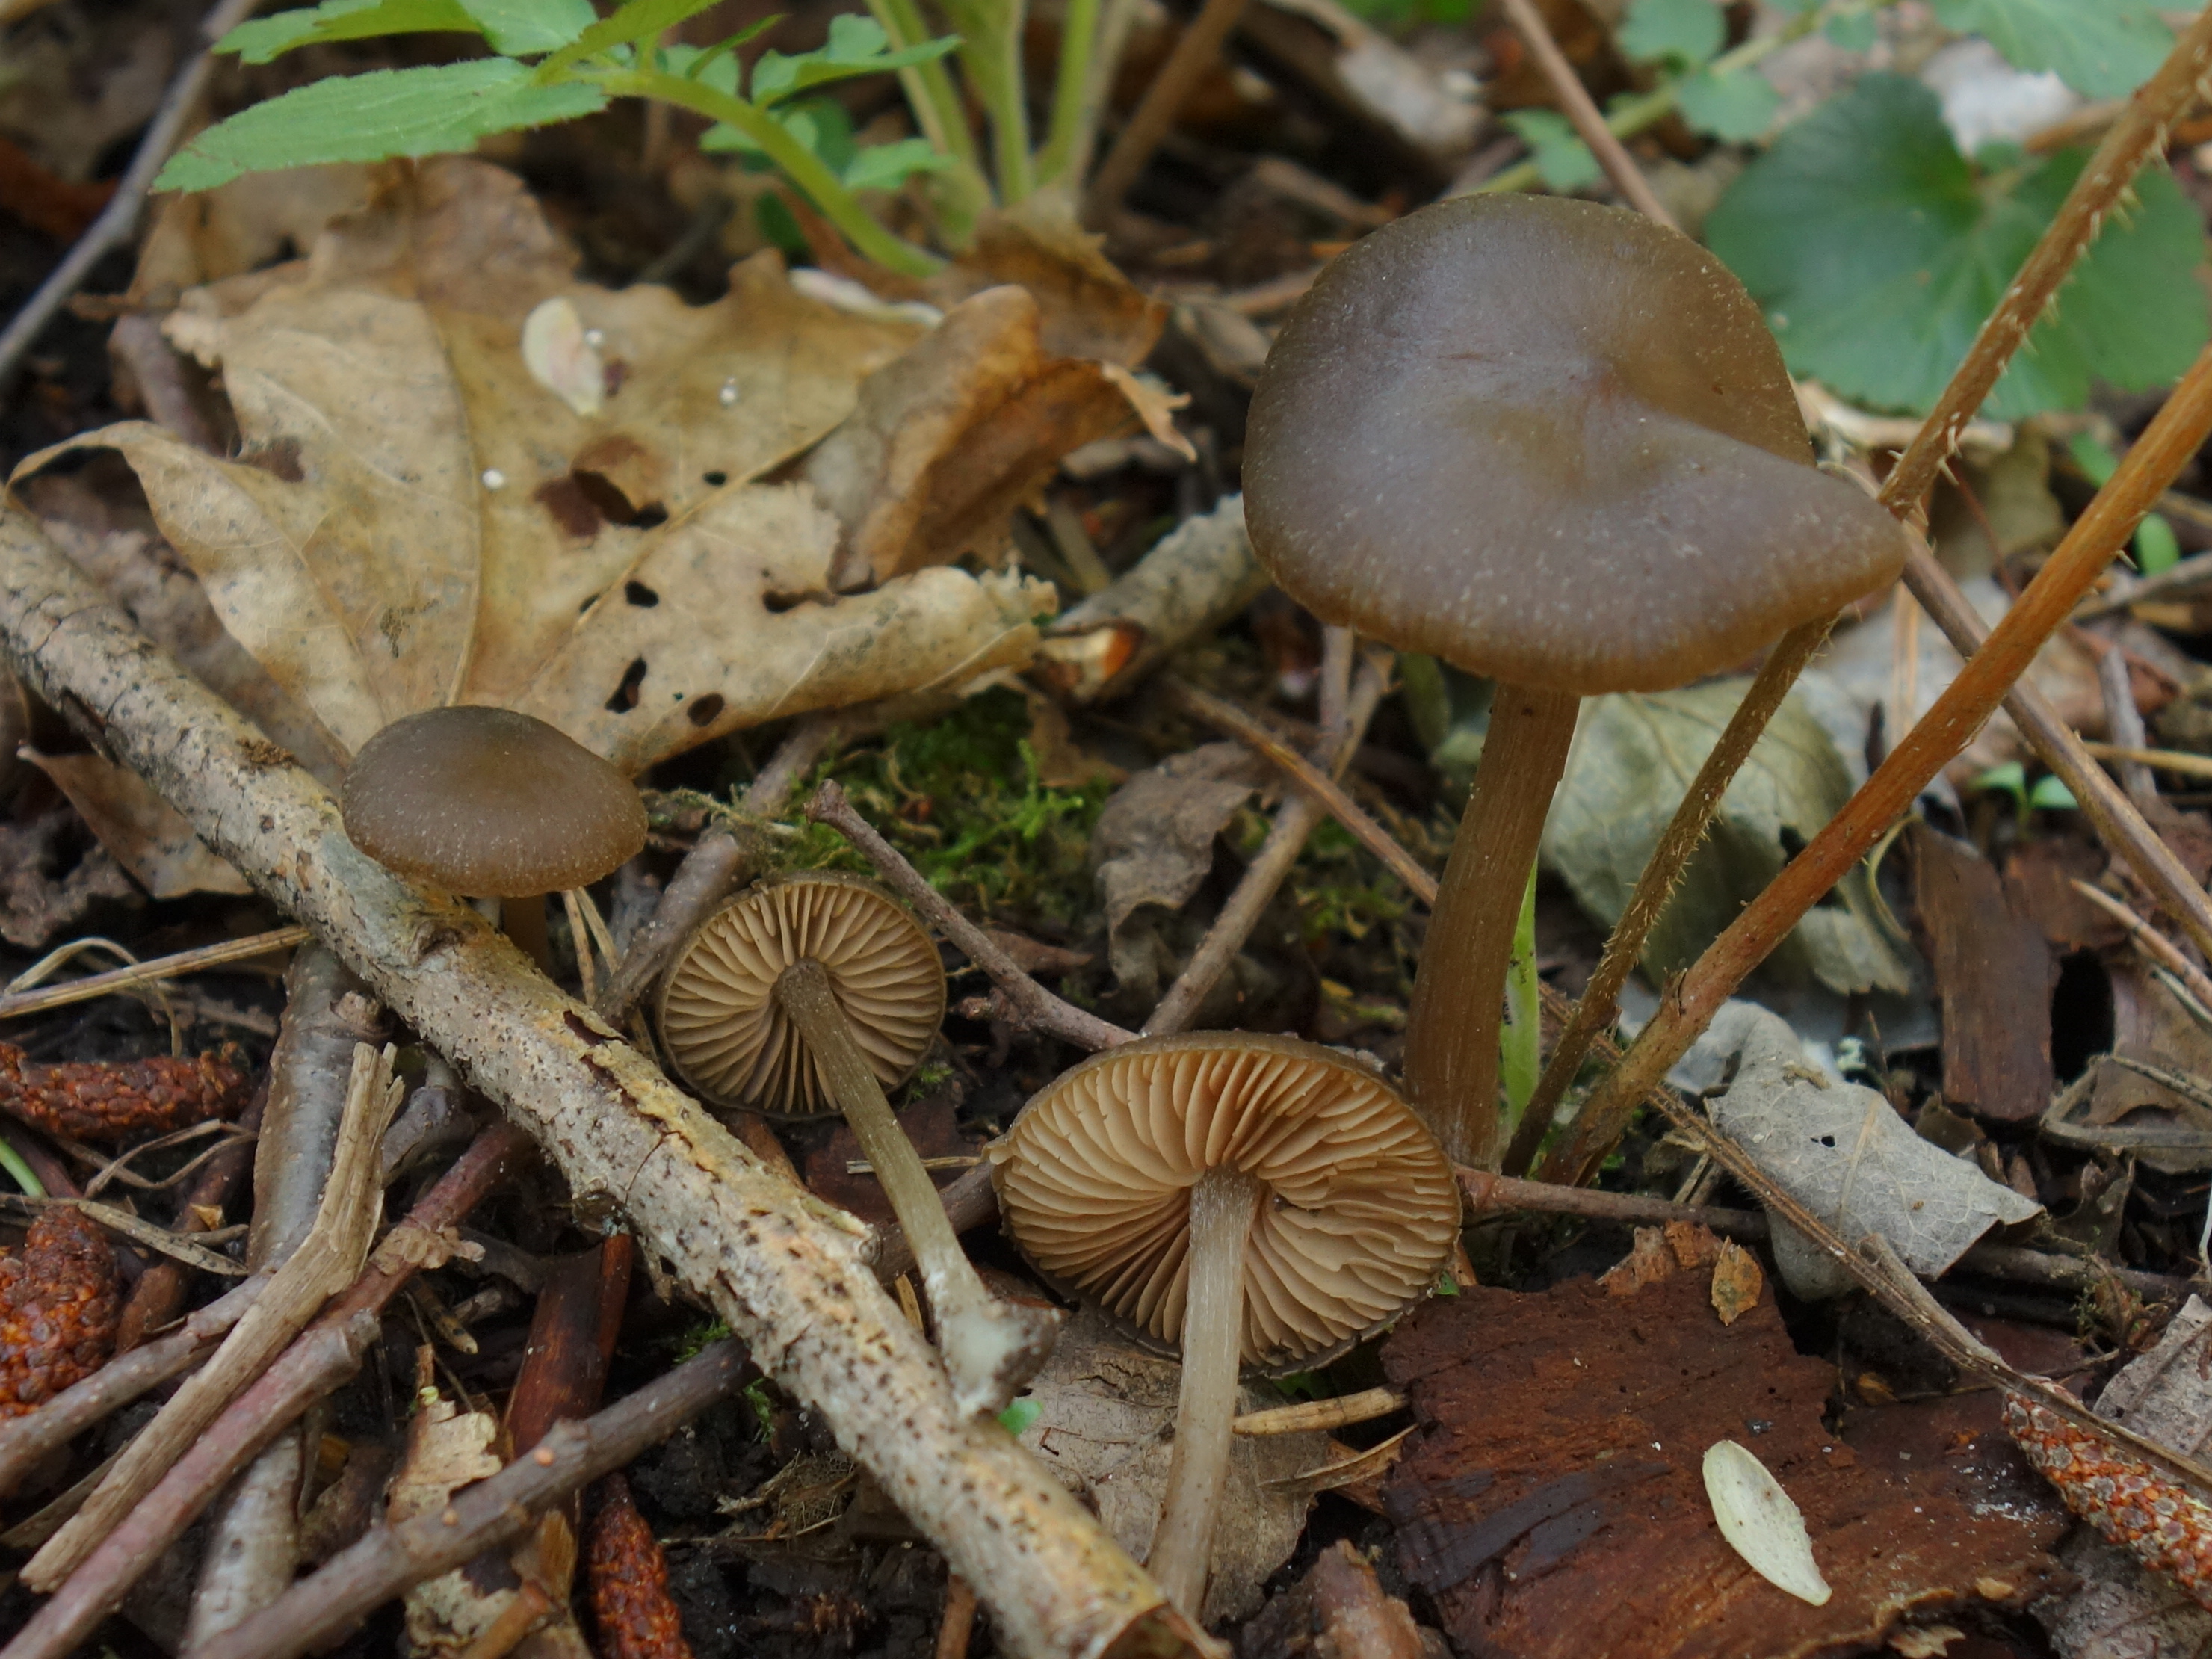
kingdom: Fungi
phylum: Basidiomycota
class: Agaricomycetes
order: Agaricales
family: Entolomataceae
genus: Entoloma
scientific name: Entoloma vernum
